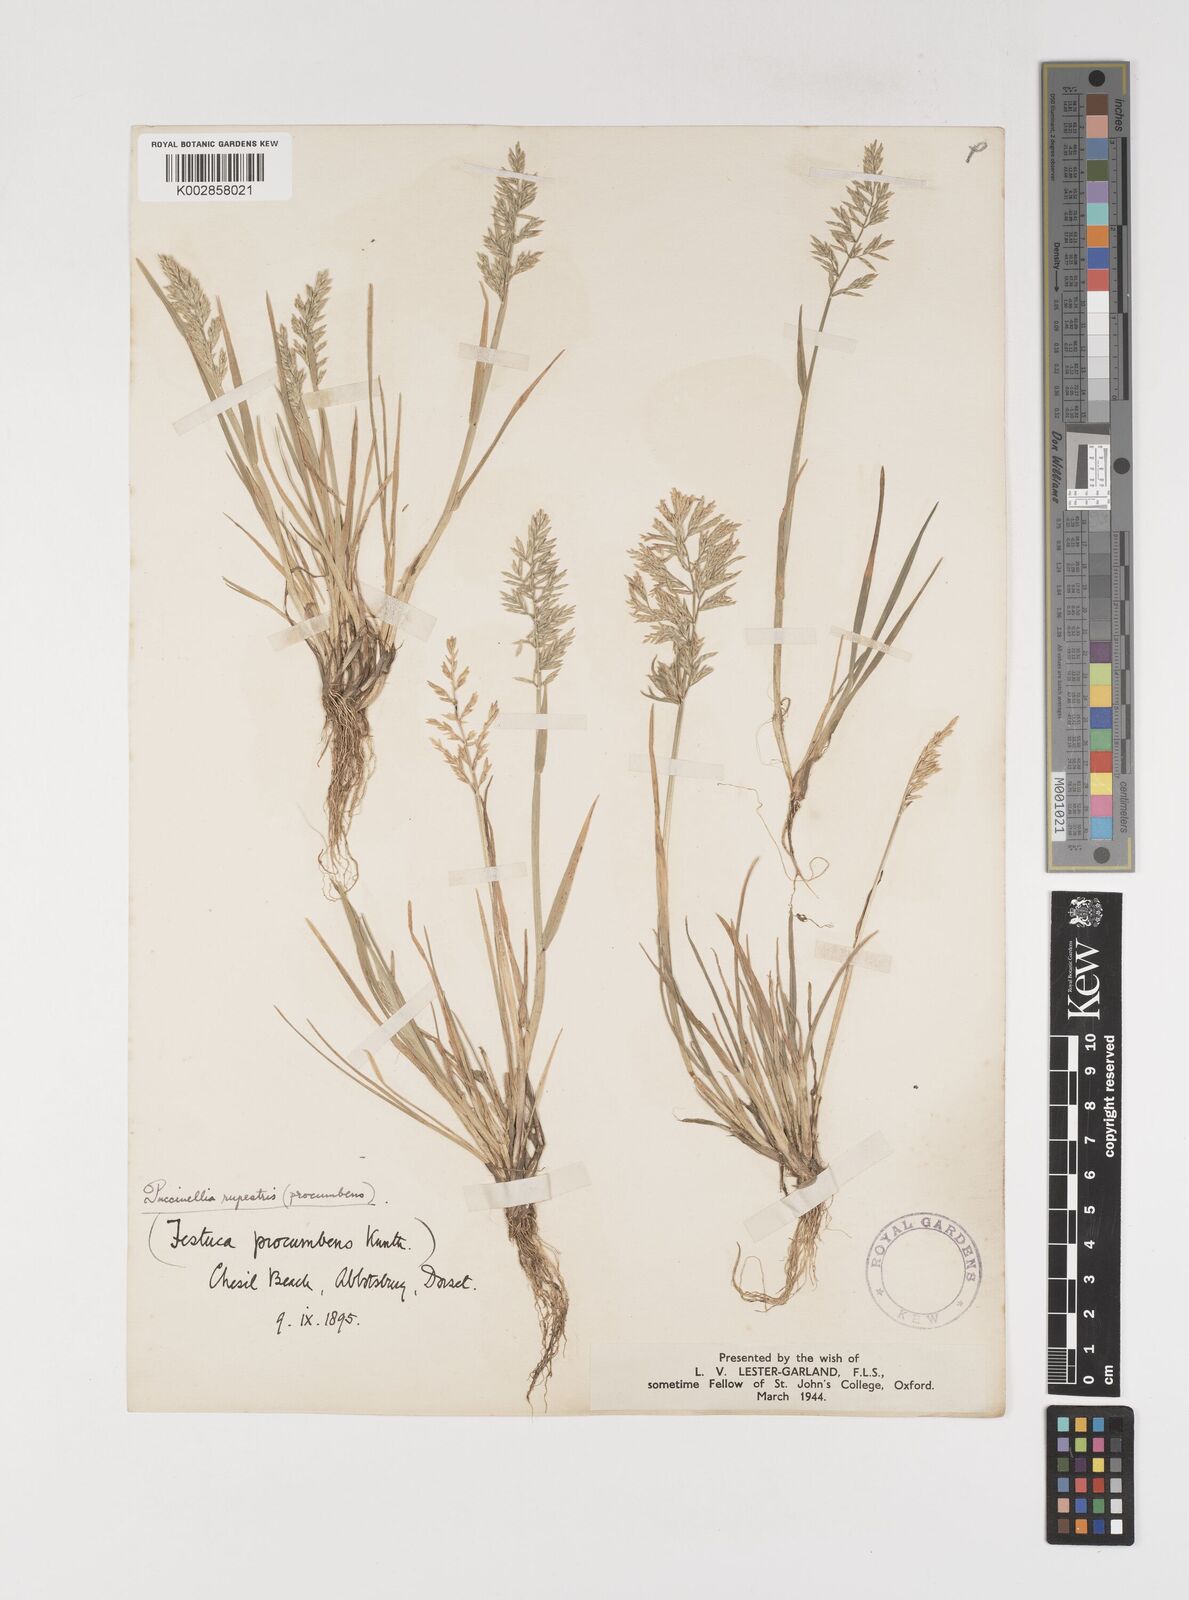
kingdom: Plantae
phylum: Tracheophyta
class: Liliopsida
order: Poales
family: Poaceae
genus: Puccinellia
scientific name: Puccinellia rupestris
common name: Stiff saltmarsh-grass
